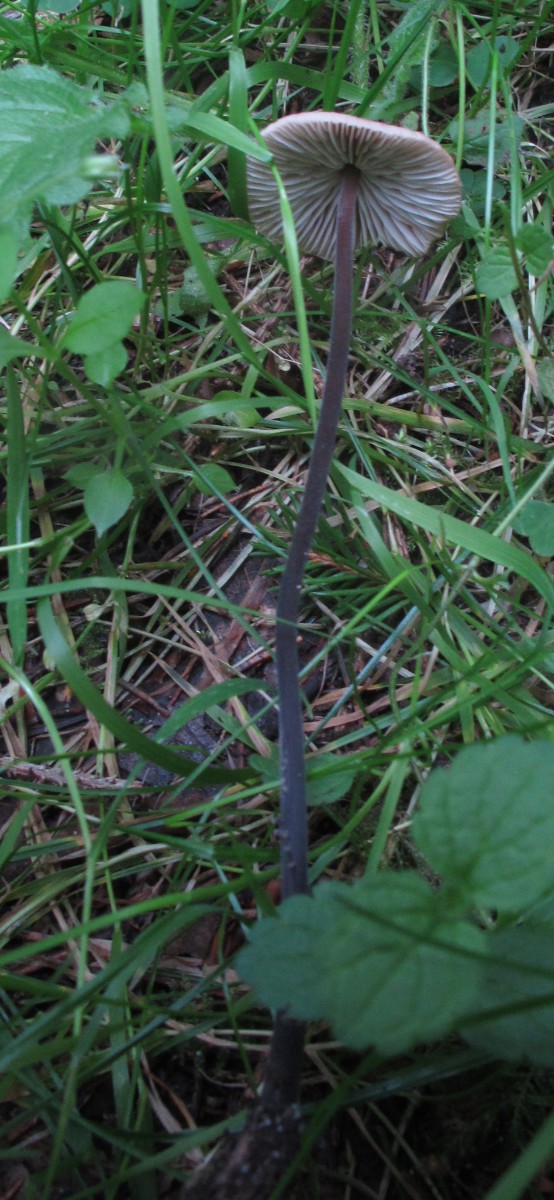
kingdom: Fungi
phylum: Basidiomycota
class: Agaricomycetes
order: Agaricales
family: Omphalotaceae
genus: Mycetinis
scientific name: Mycetinis alliaceus
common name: stor løghat
